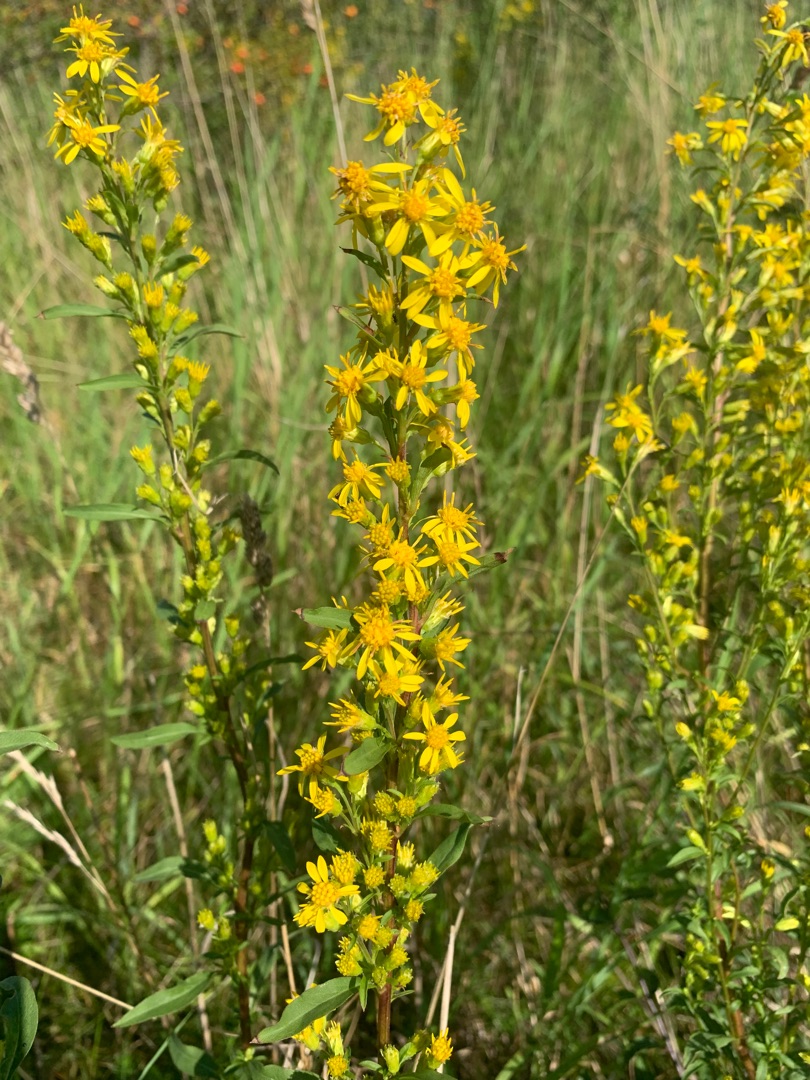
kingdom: Plantae
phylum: Tracheophyta
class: Magnoliopsida
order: Asterales
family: Asteraceae
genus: Solidago
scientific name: Solidago virgaurea
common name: Almindelig gyldenris
